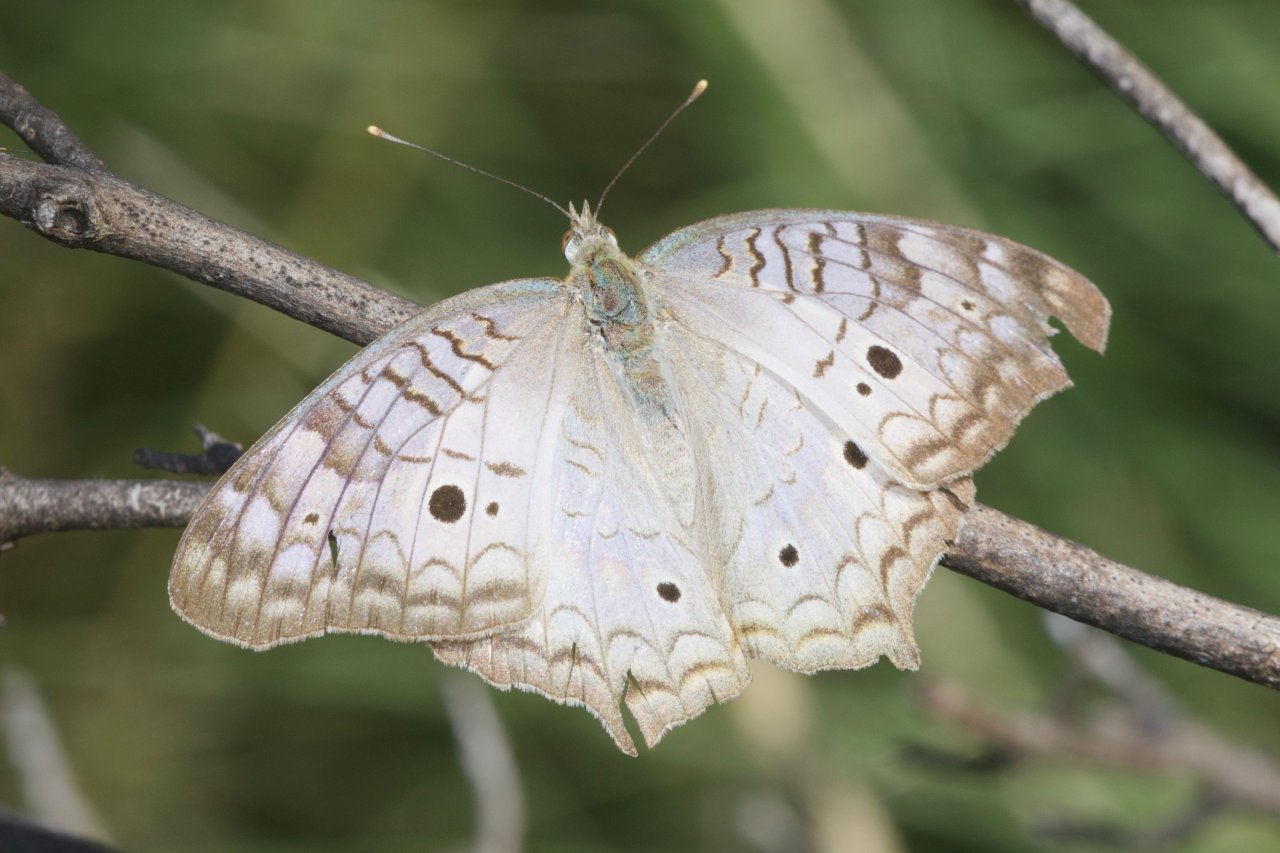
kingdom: Animalia
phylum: Arthropoda
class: Insecta
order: Lepidoptera
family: Nymphalidae
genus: Anartia
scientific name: Anartia jatrophae
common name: White Peacock
